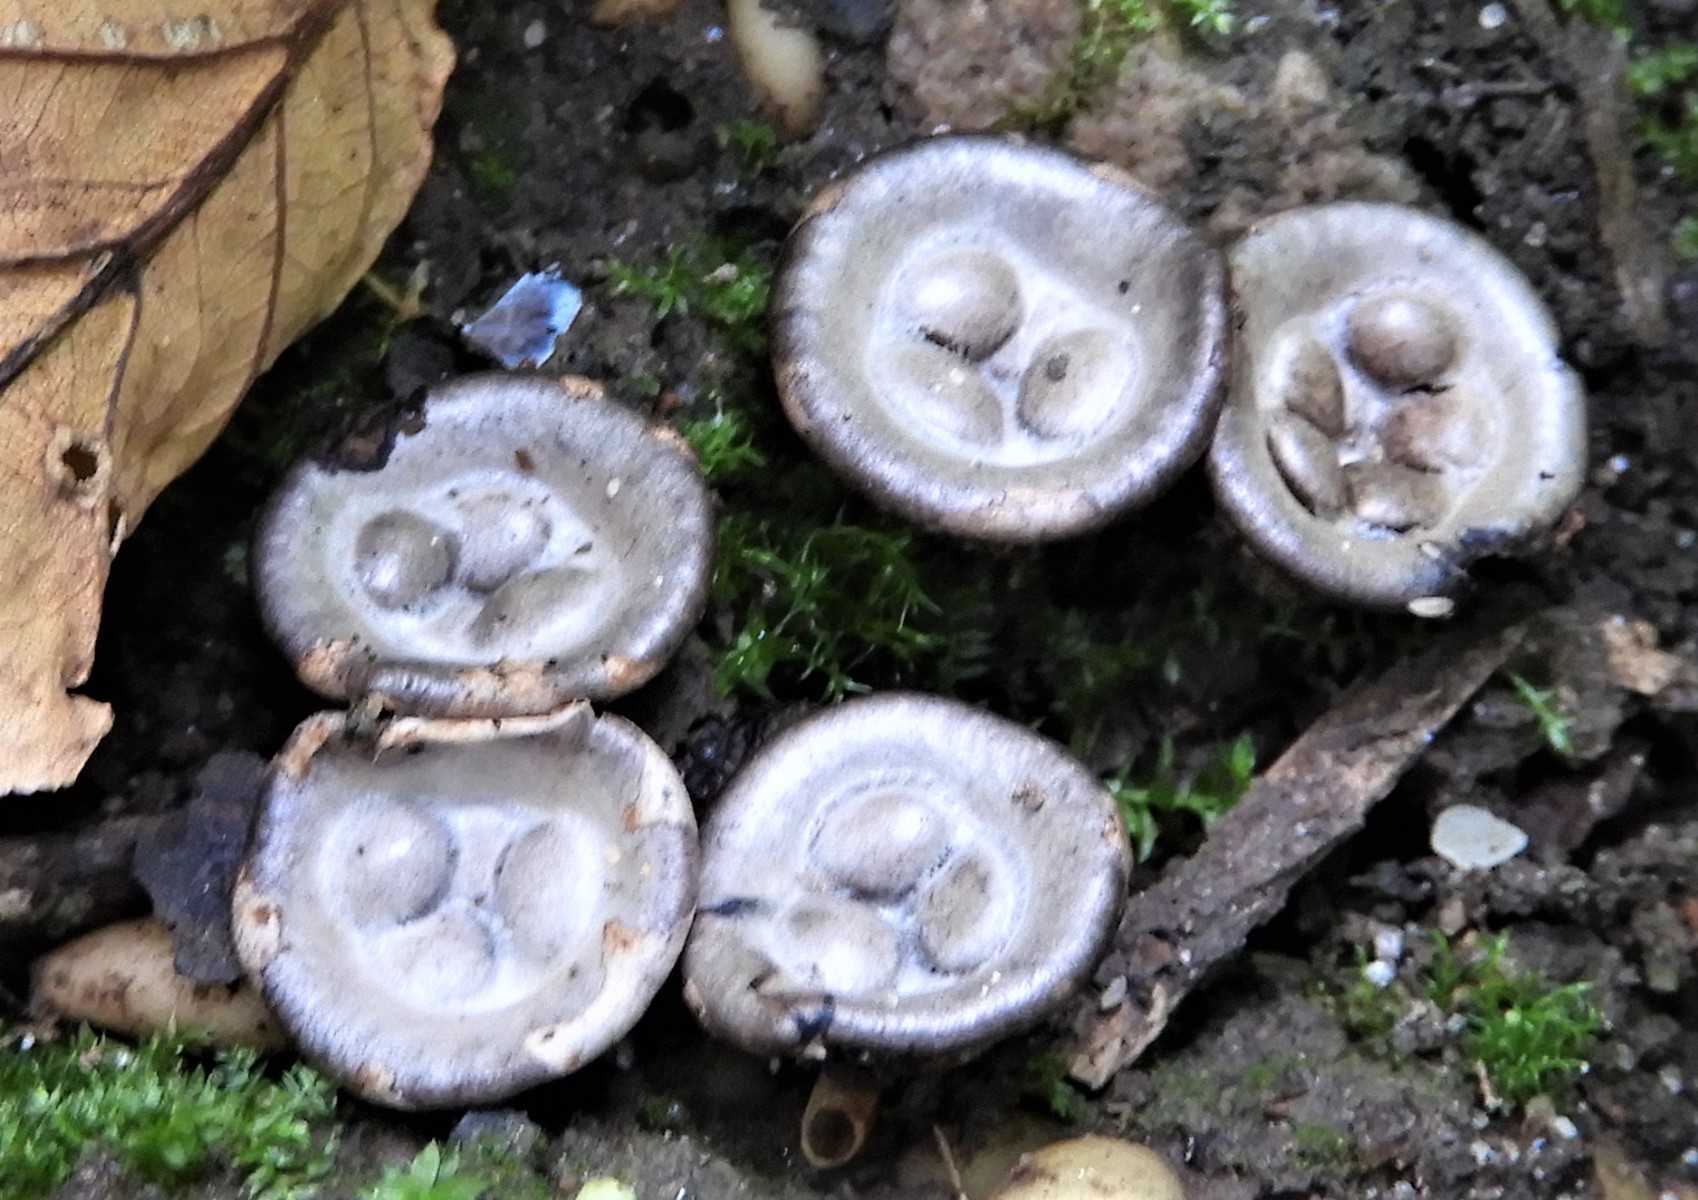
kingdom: Fungi
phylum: Basidiomycota
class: Agaricomycetes
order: Agaricales
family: Agaricaceae
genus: Cyathus
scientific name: Cyathus olla
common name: klokke-redesvamp
